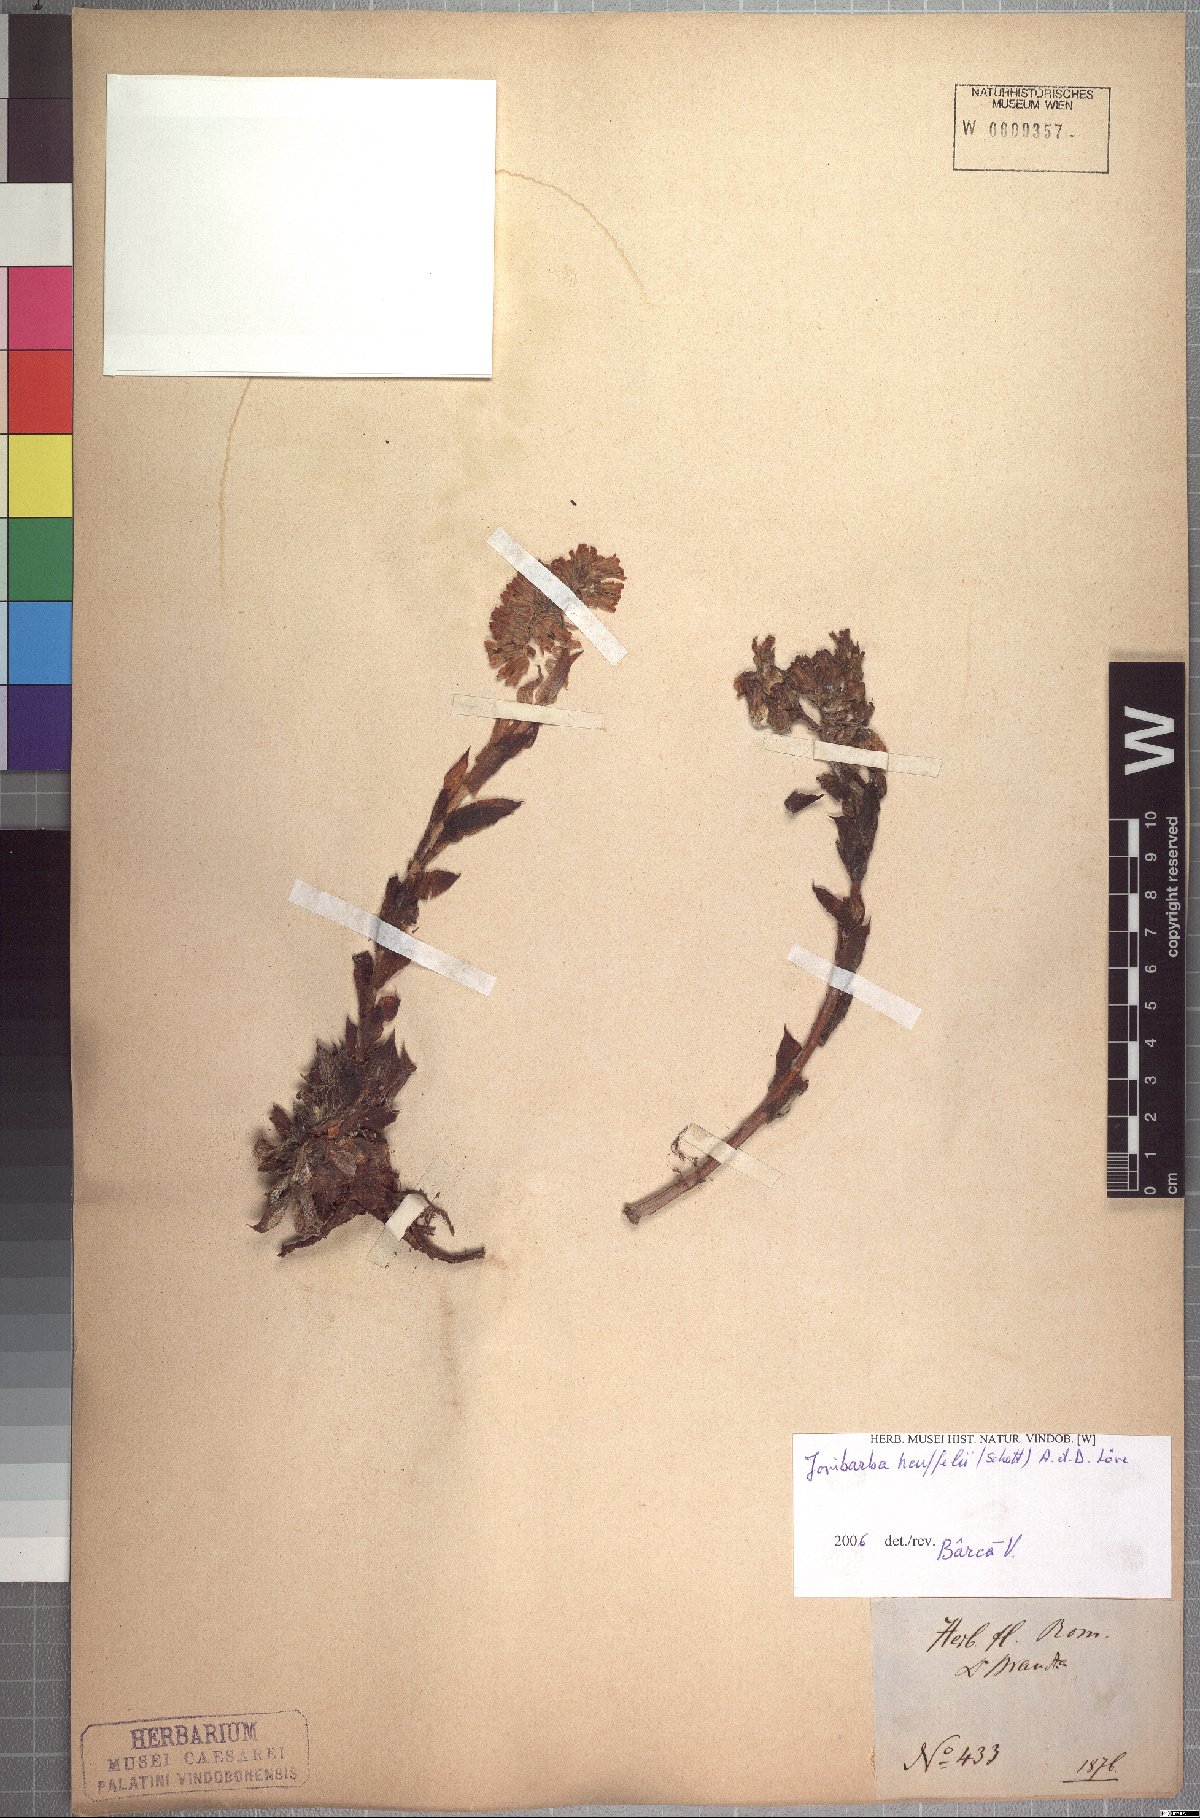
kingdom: Plantae
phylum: Tracheophyta
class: Magnoliopsida
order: Saxifragales
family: Crassulaceae
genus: Sempervivum
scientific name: Sempervivum heuffelii
